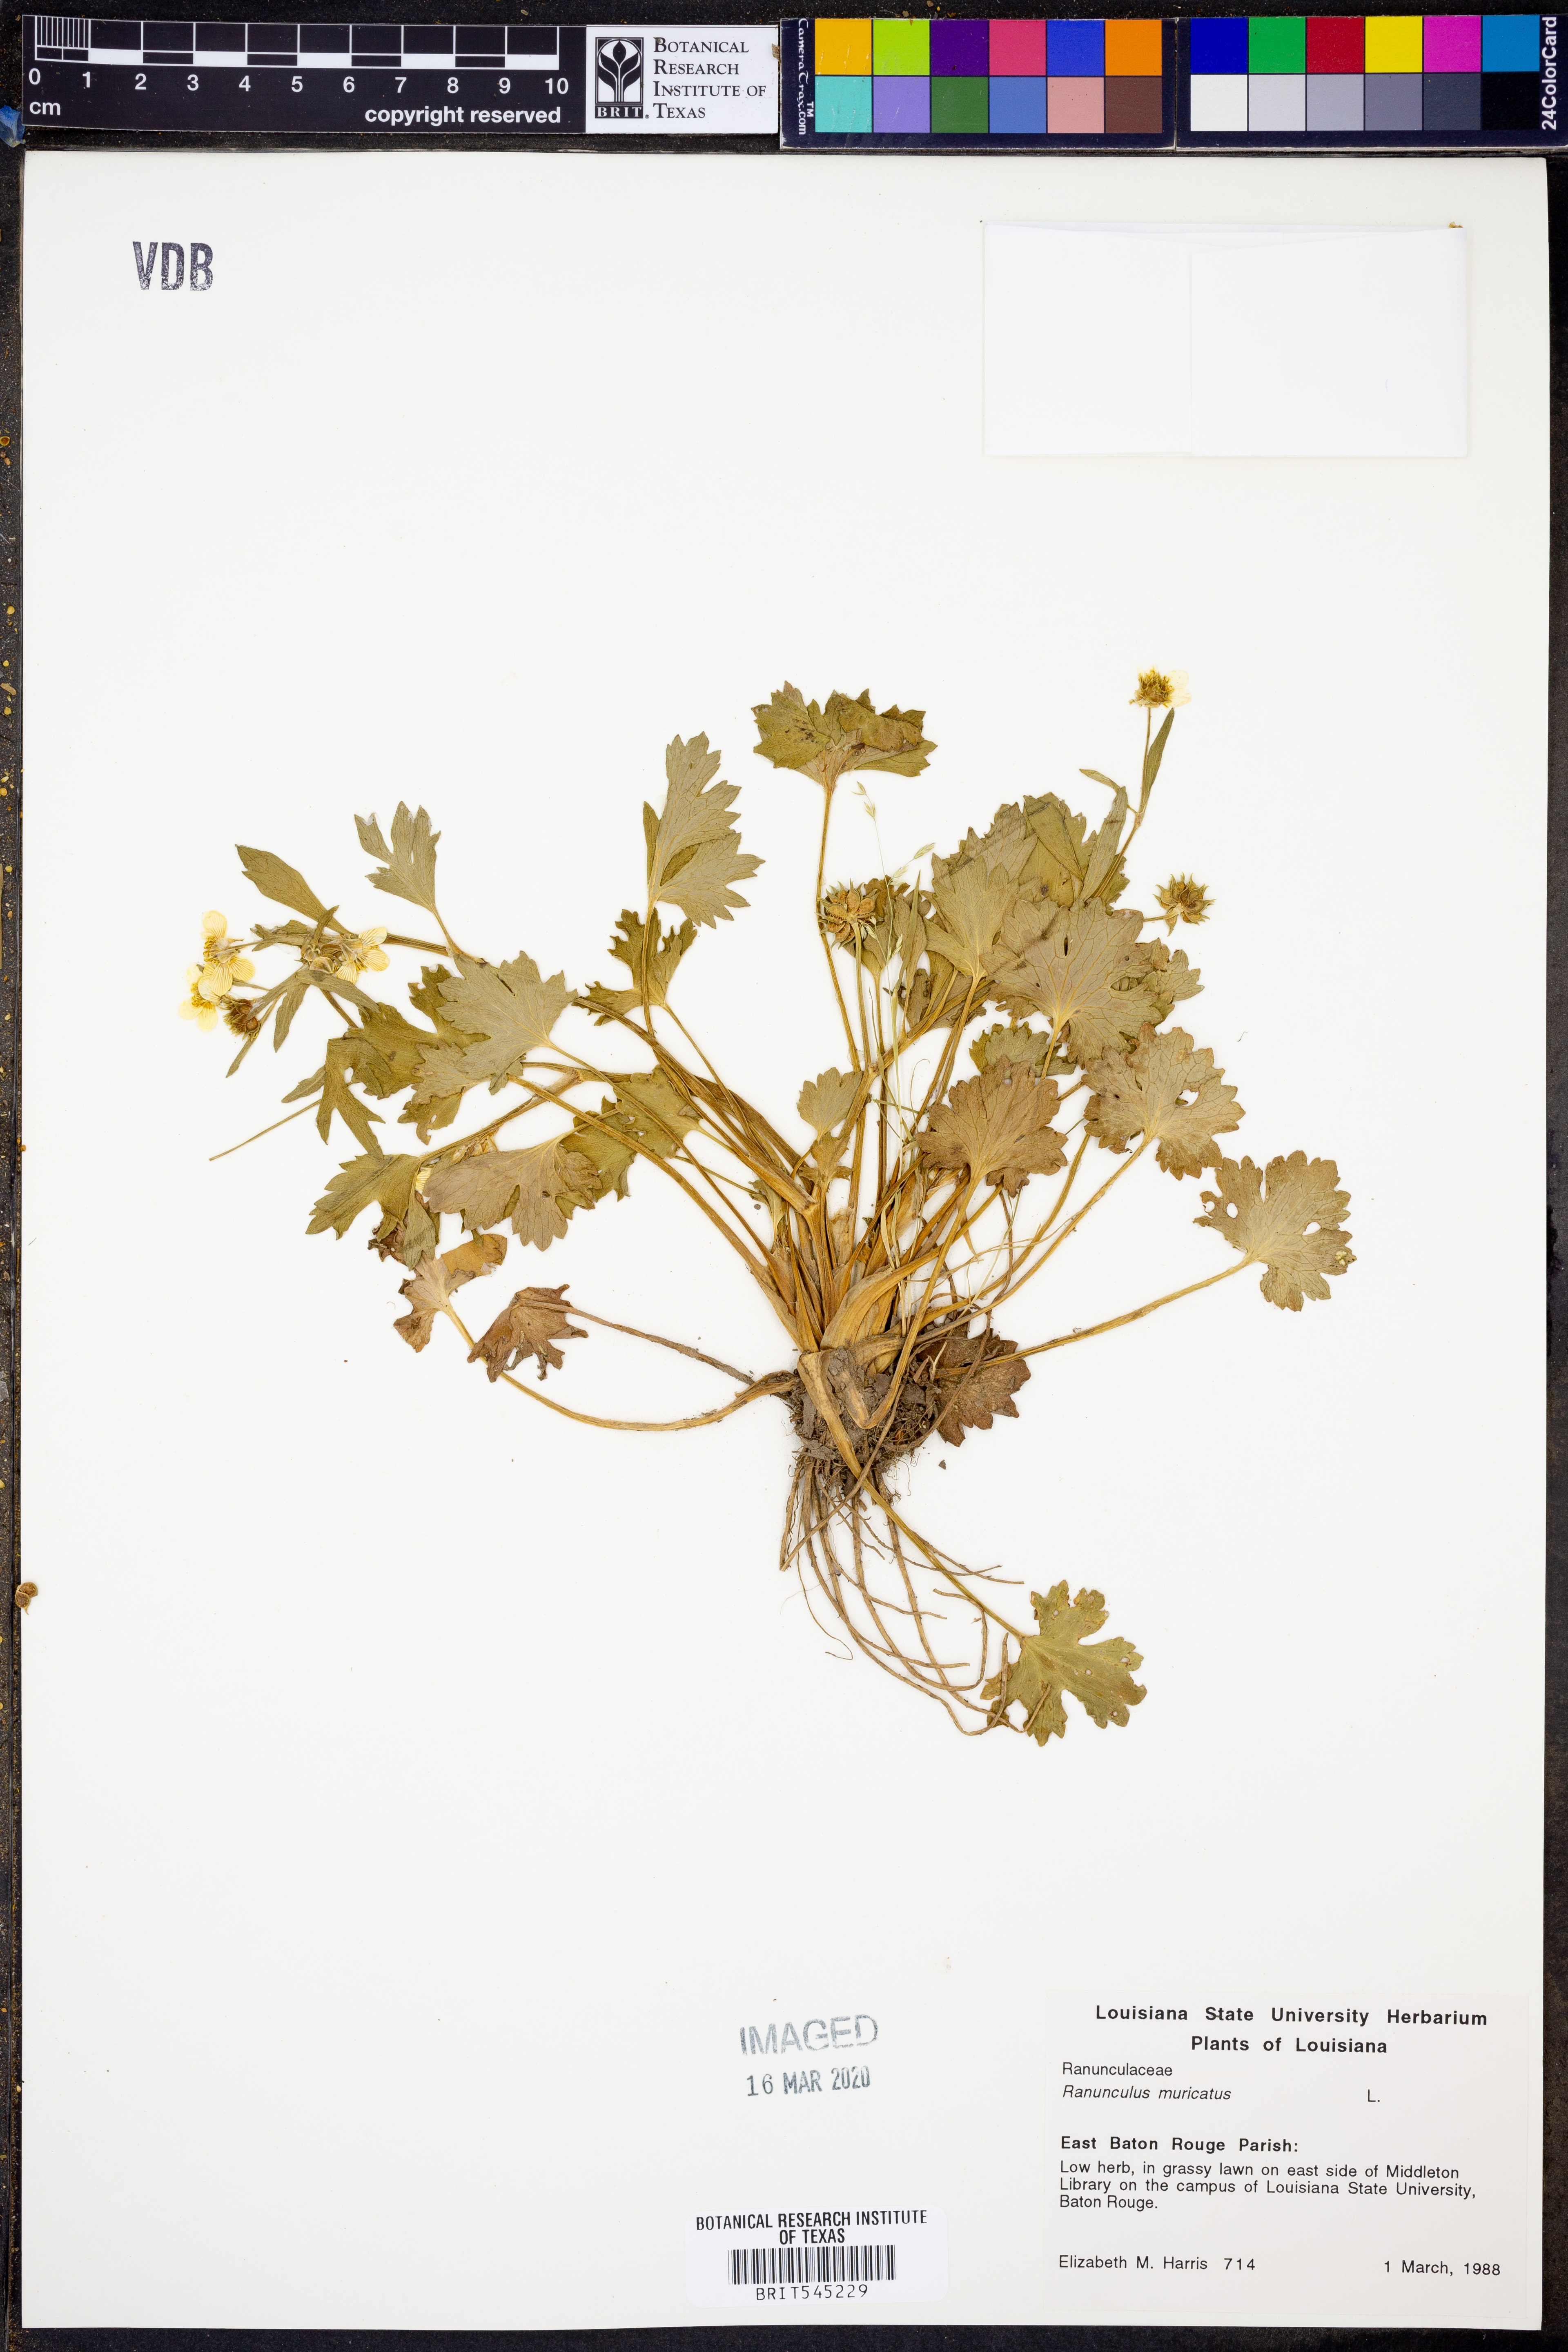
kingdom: Plantae
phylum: Tracheophyta
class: Magnoliopsida
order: Ranunculales
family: Ranunculaceae
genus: Ranunculus
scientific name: Ranunculus muricatus
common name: Rough-fruited buttercup
